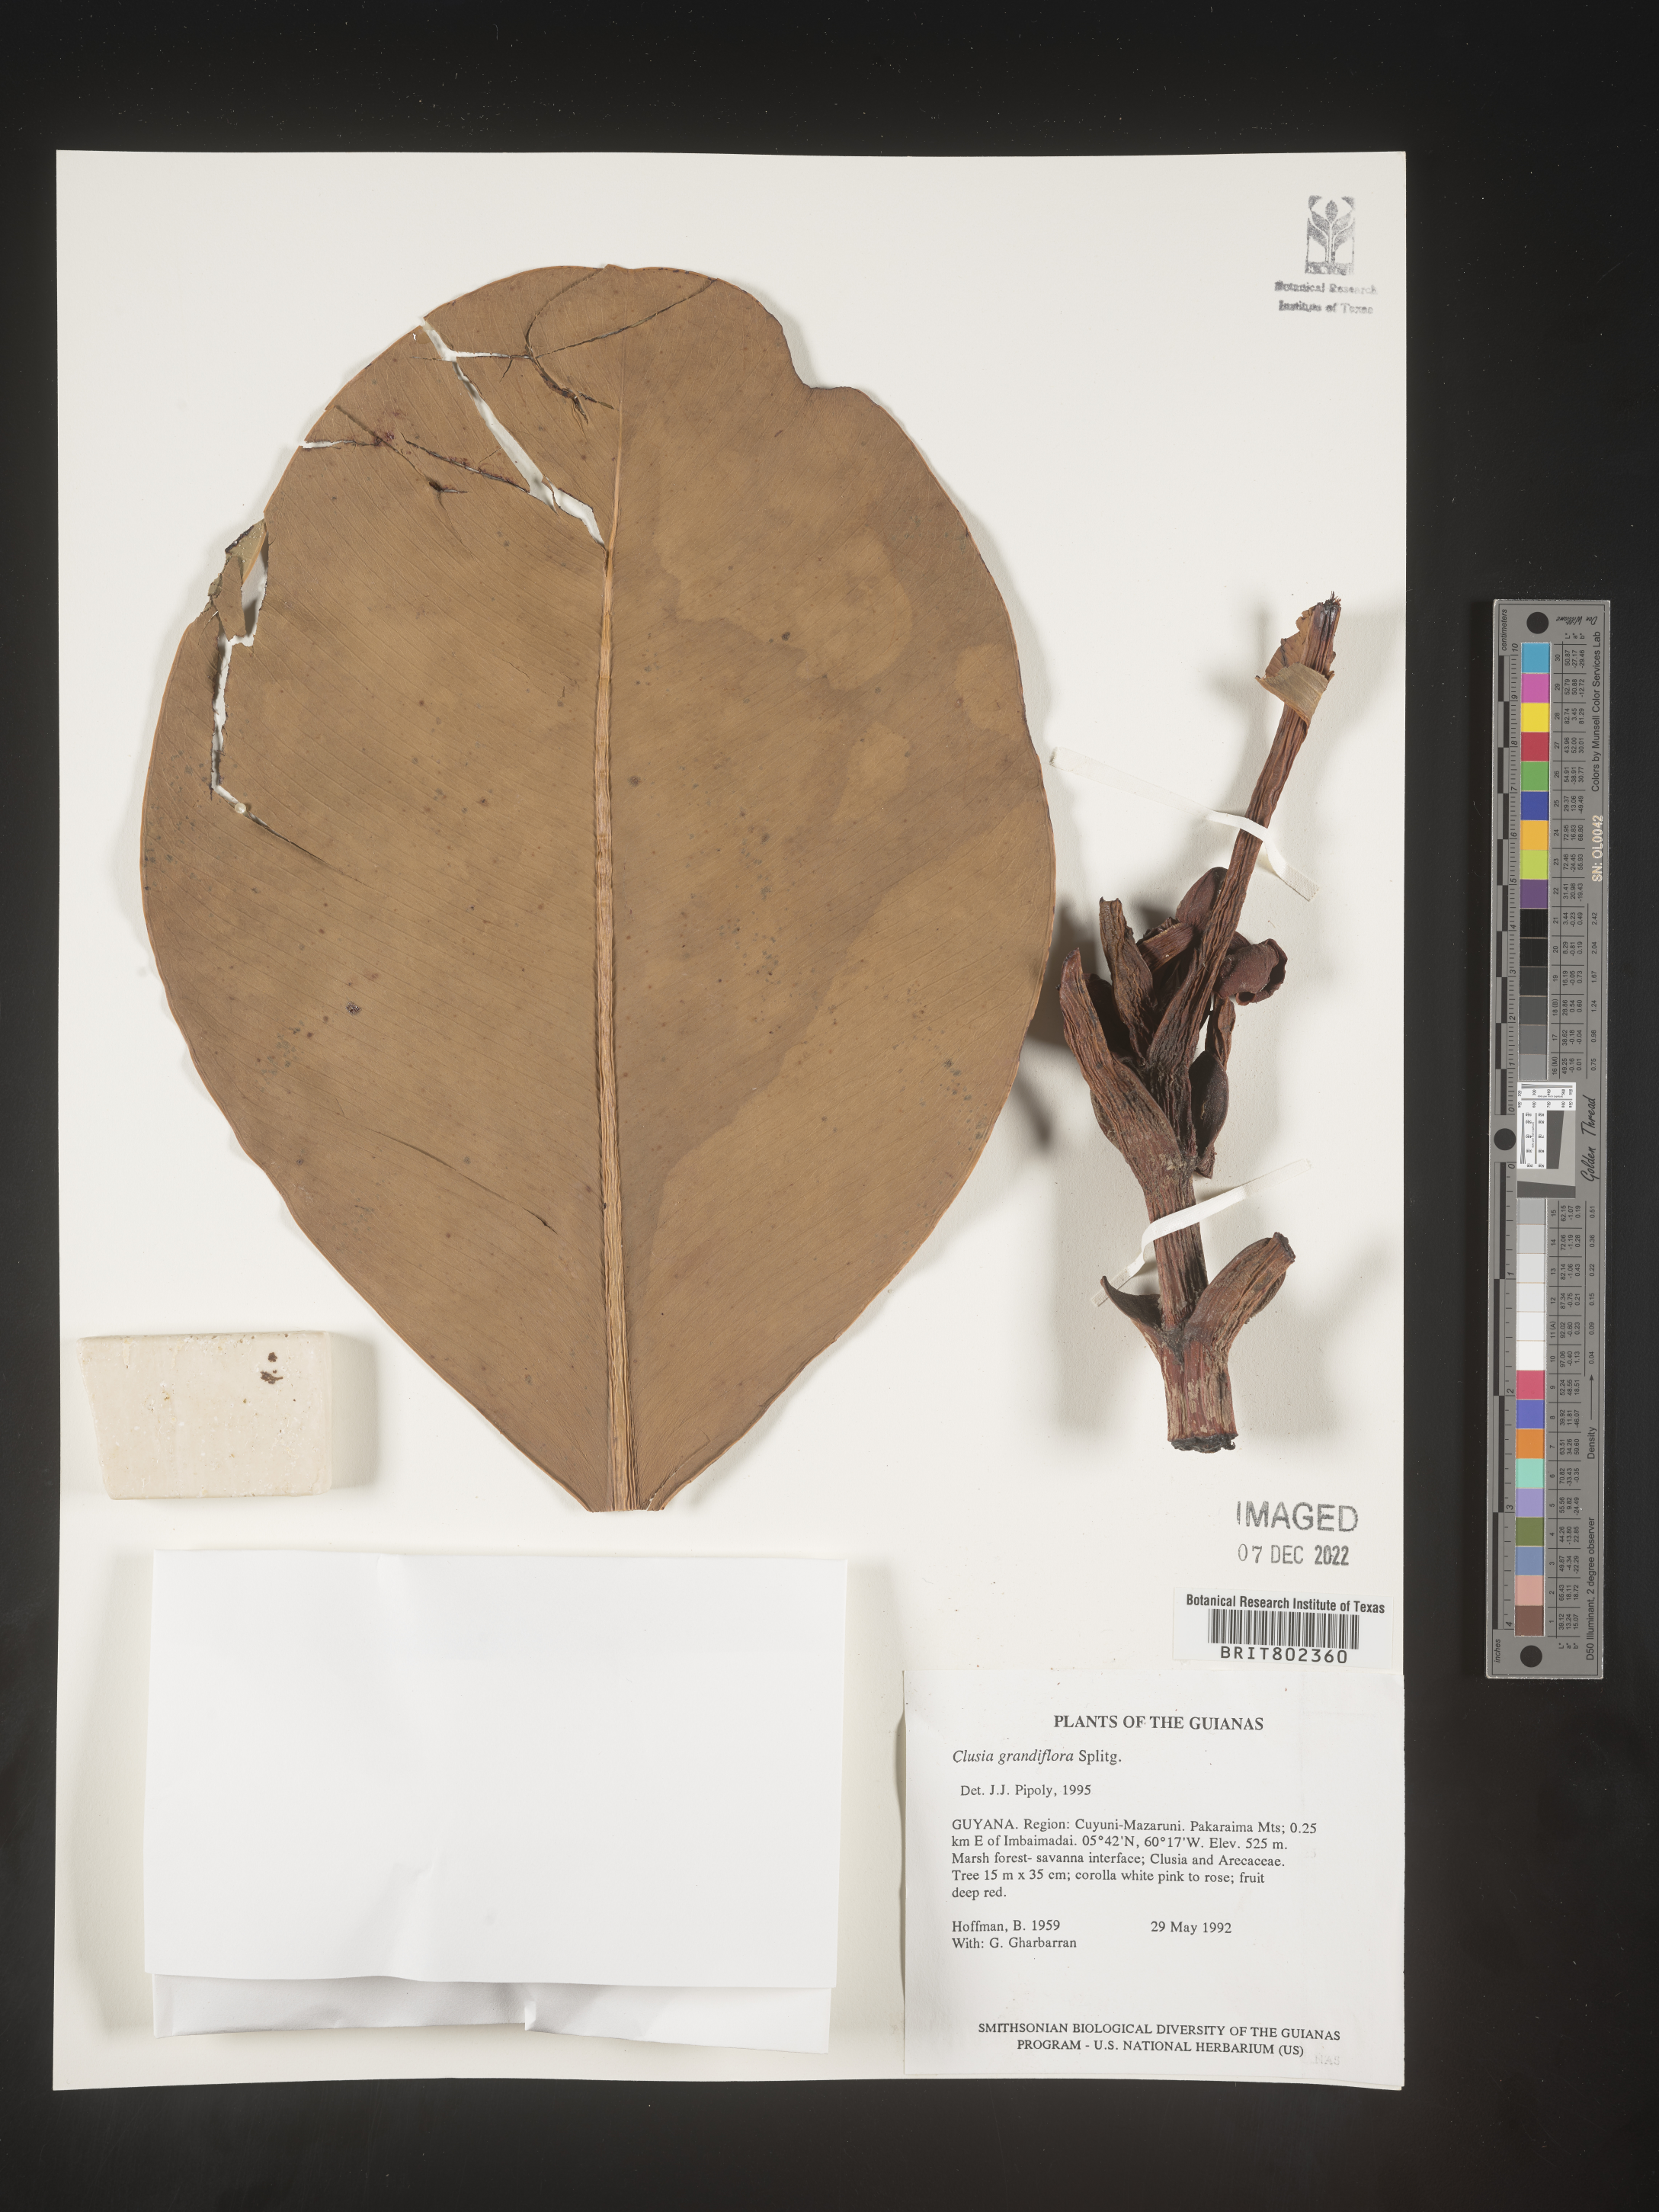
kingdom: Plantae
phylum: Tracheophyta
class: Magnoliopsida
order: Malpighiales
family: Clusiaceae
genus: Clusia
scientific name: Clusia grandiflora
